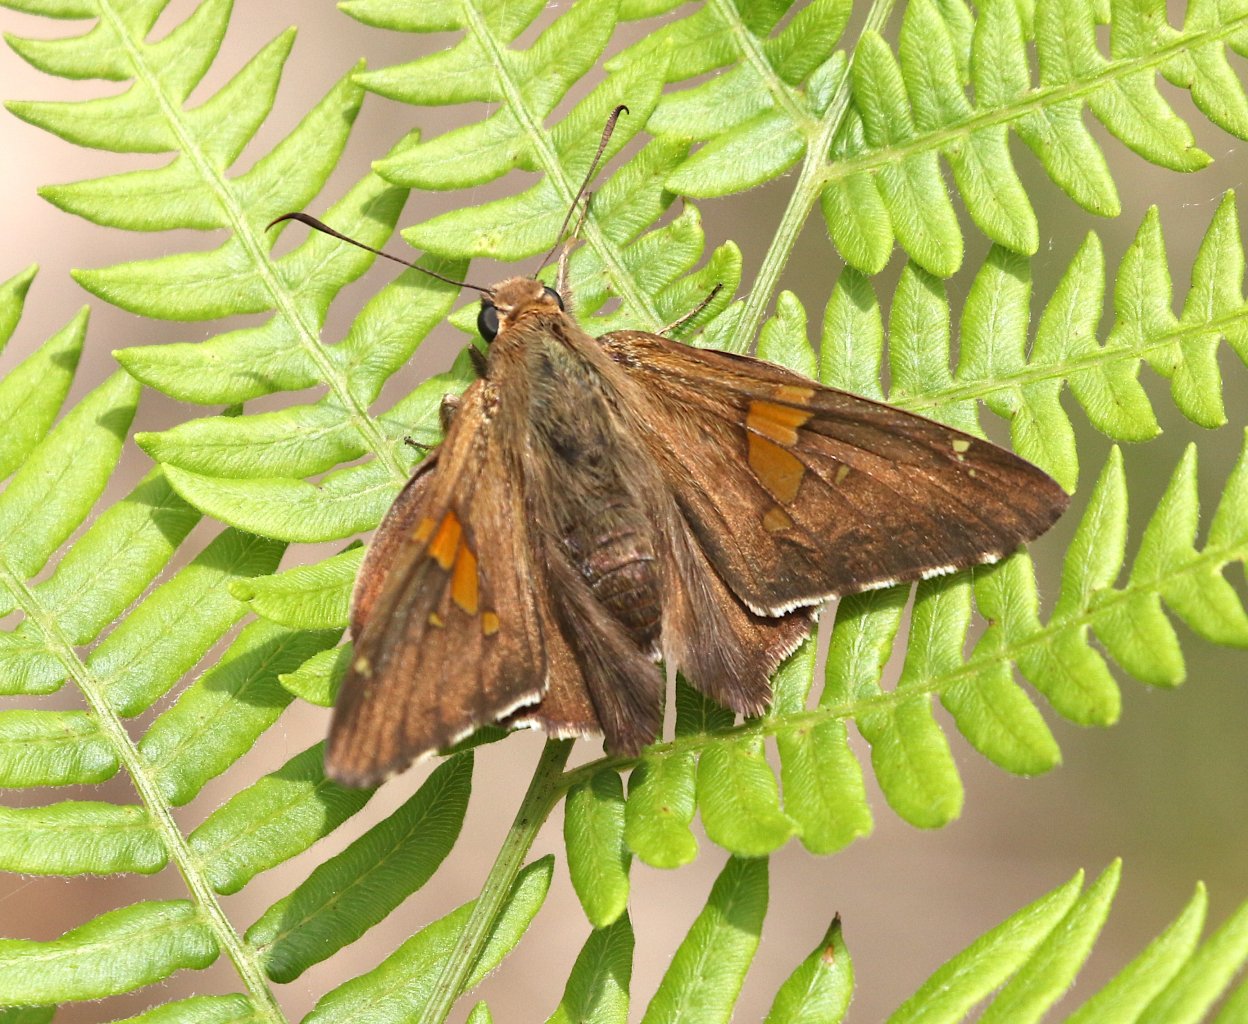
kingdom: Animalia
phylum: Arthropoda
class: Insecta
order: Lepidoptera
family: Hesperiidae
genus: Epargyreus
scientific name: Epargyreus clarus
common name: Silver-spotted Skipper
